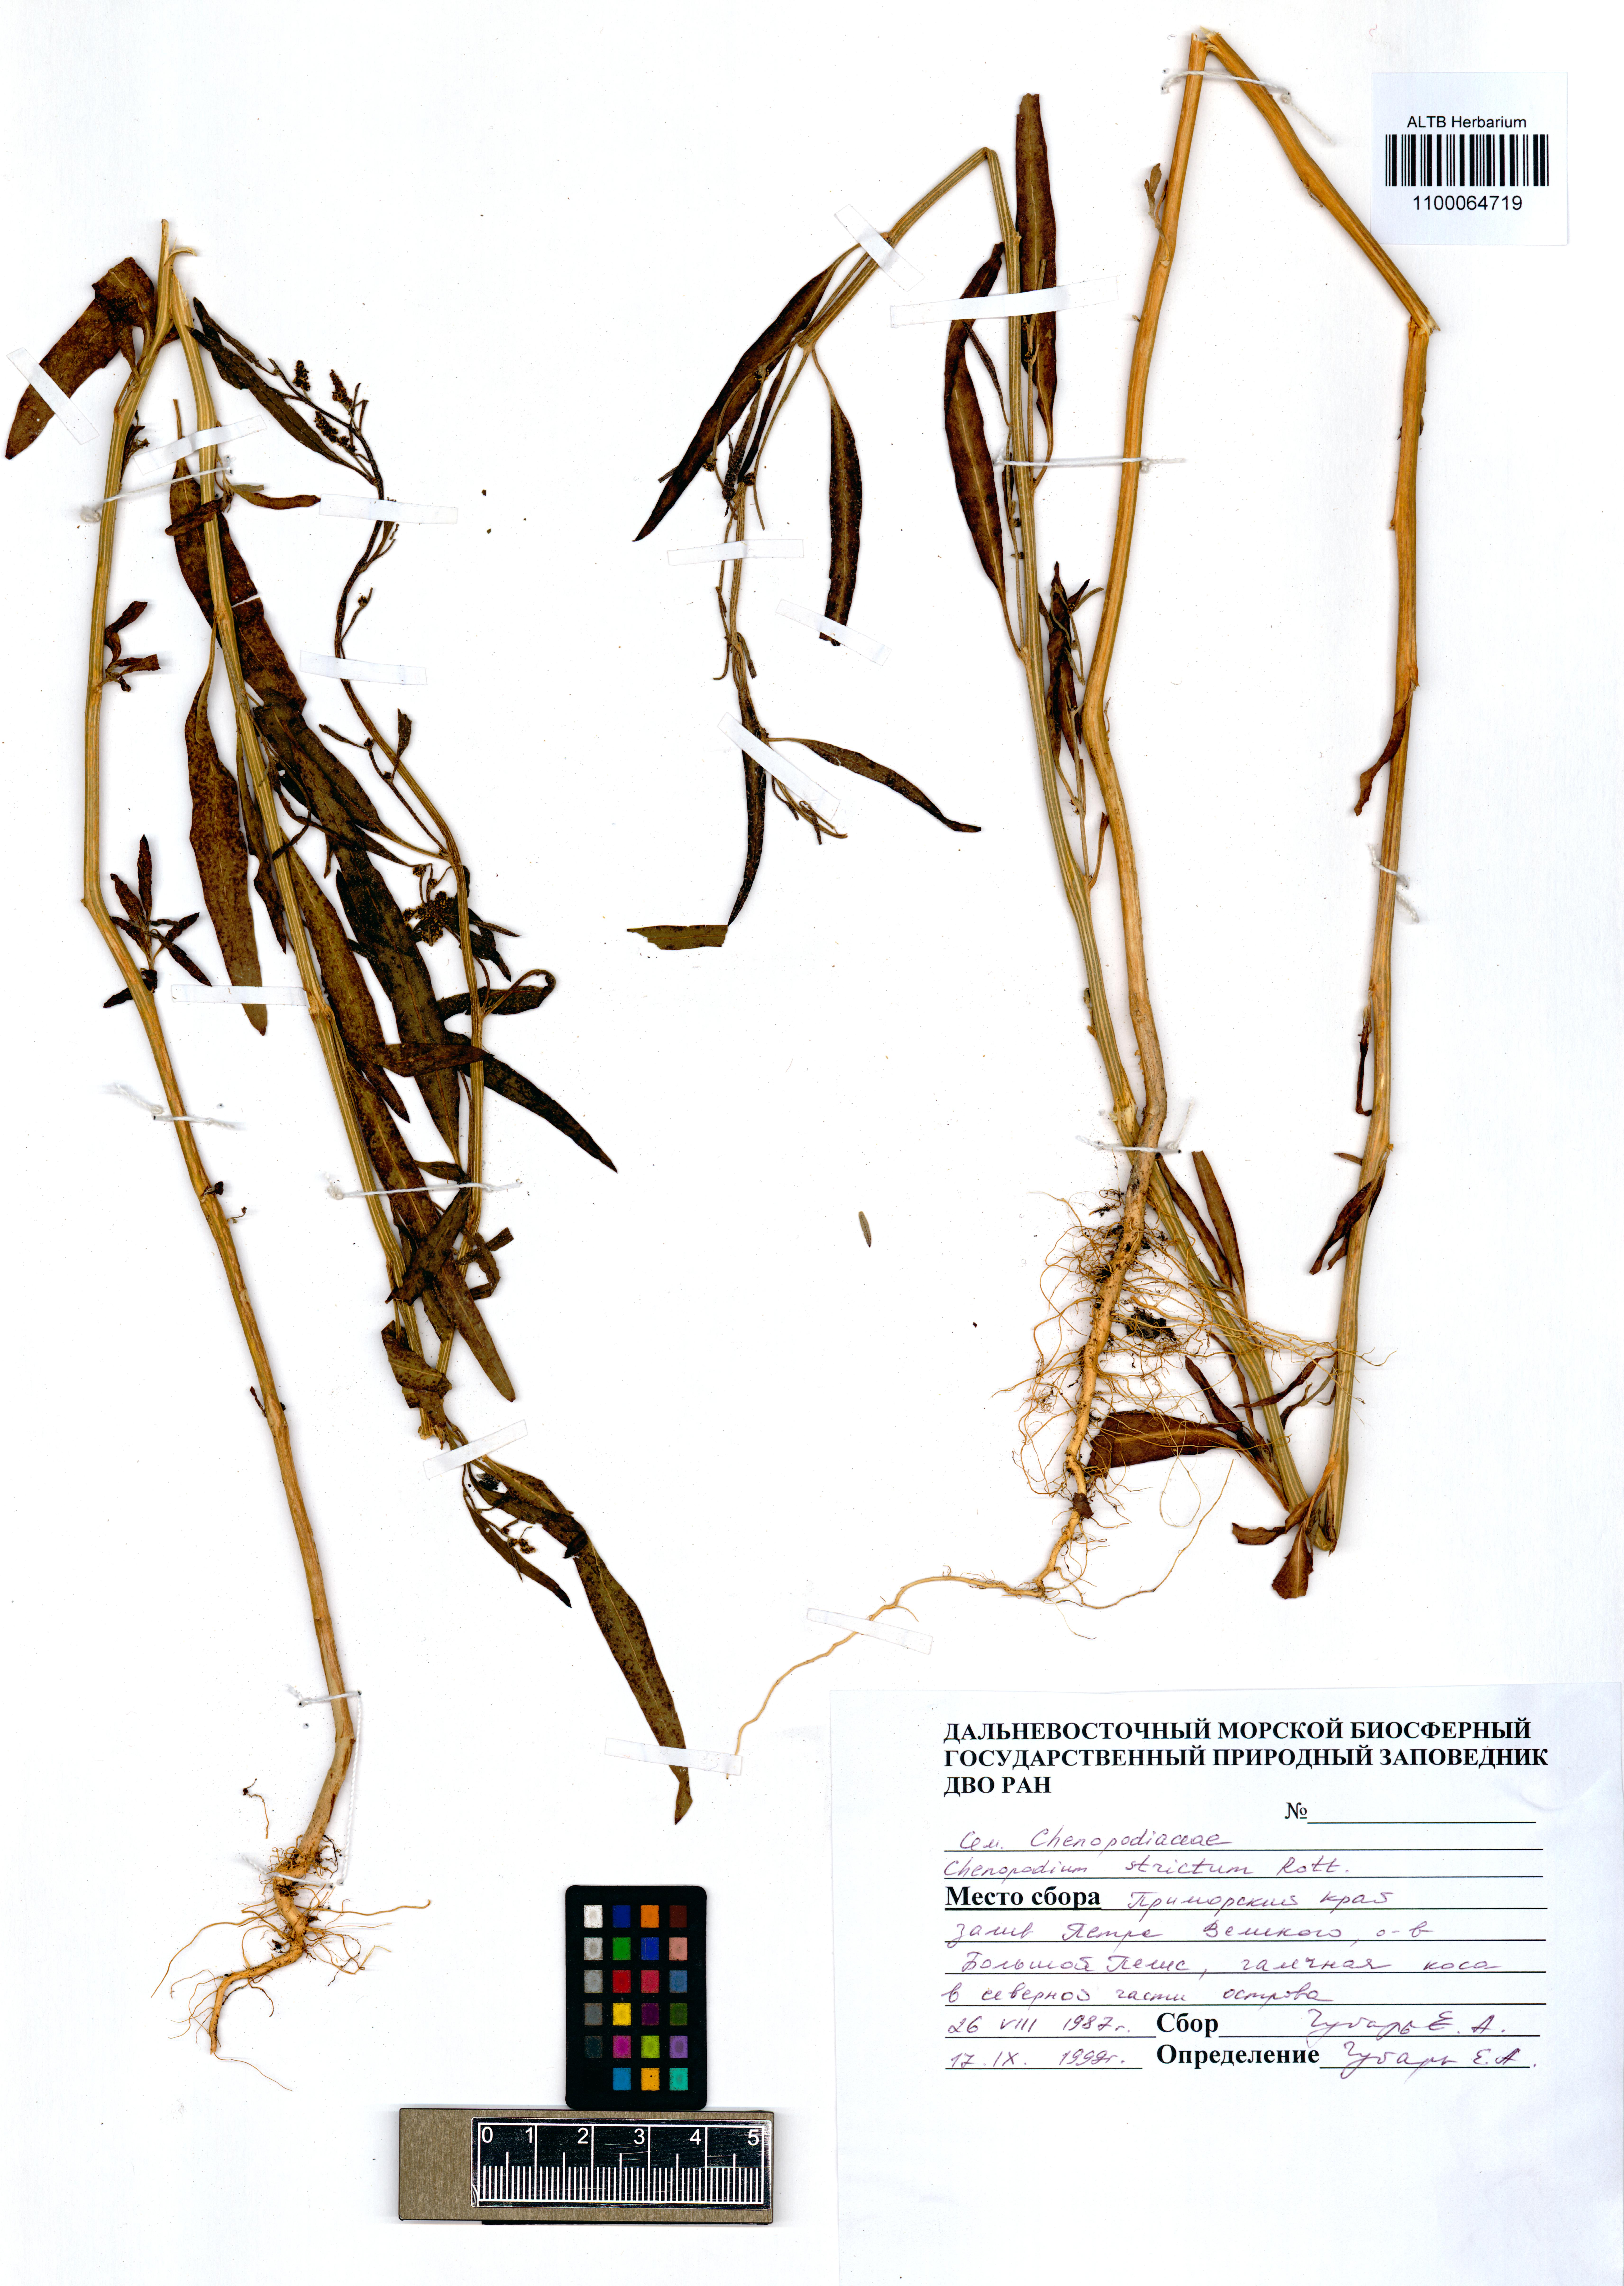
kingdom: Plantae
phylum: Tracheophyta
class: Magnoliopsida
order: Caryophyllales
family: Amaranthaceae
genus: Chenopodium
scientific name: Chenopodium album
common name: Fat-hen
